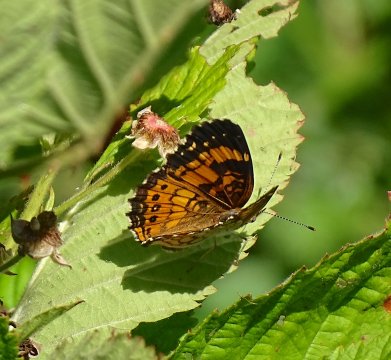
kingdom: Animalia
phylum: Arthropoda
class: Insecta
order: Lepidoptera
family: Nymphalidae
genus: Chlosyne
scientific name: Chlosyne nycteis
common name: Silvery Checkerspot
